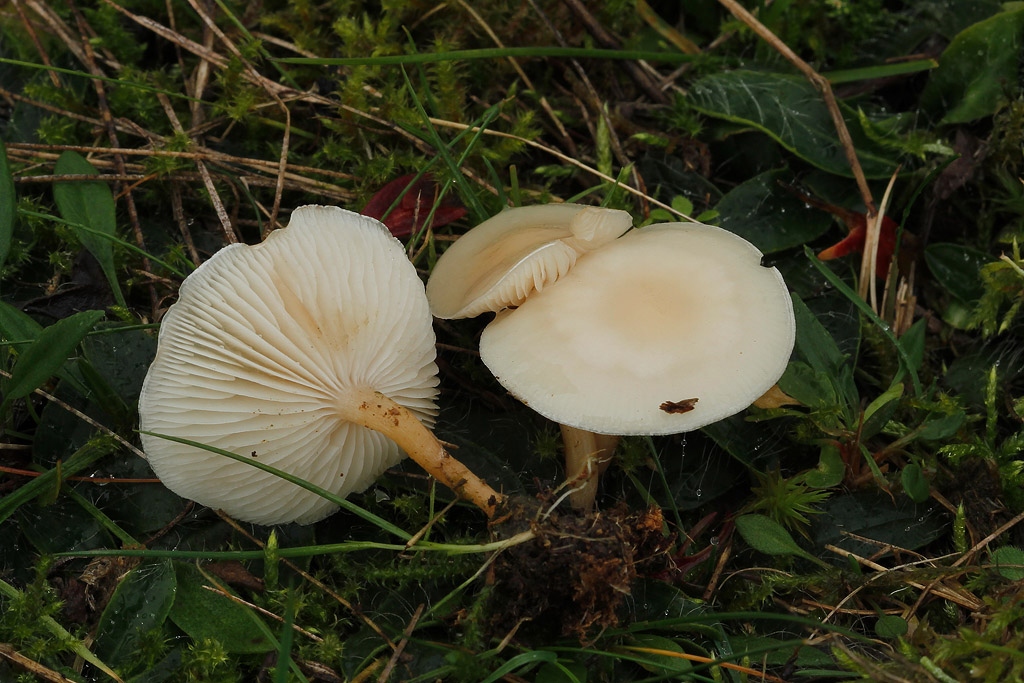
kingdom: Fungi
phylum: Basidiomycota
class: Agaricomycetes
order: Agaricales
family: Tricholomataceae
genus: Clitocybe
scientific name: Clitocybe agrestis
